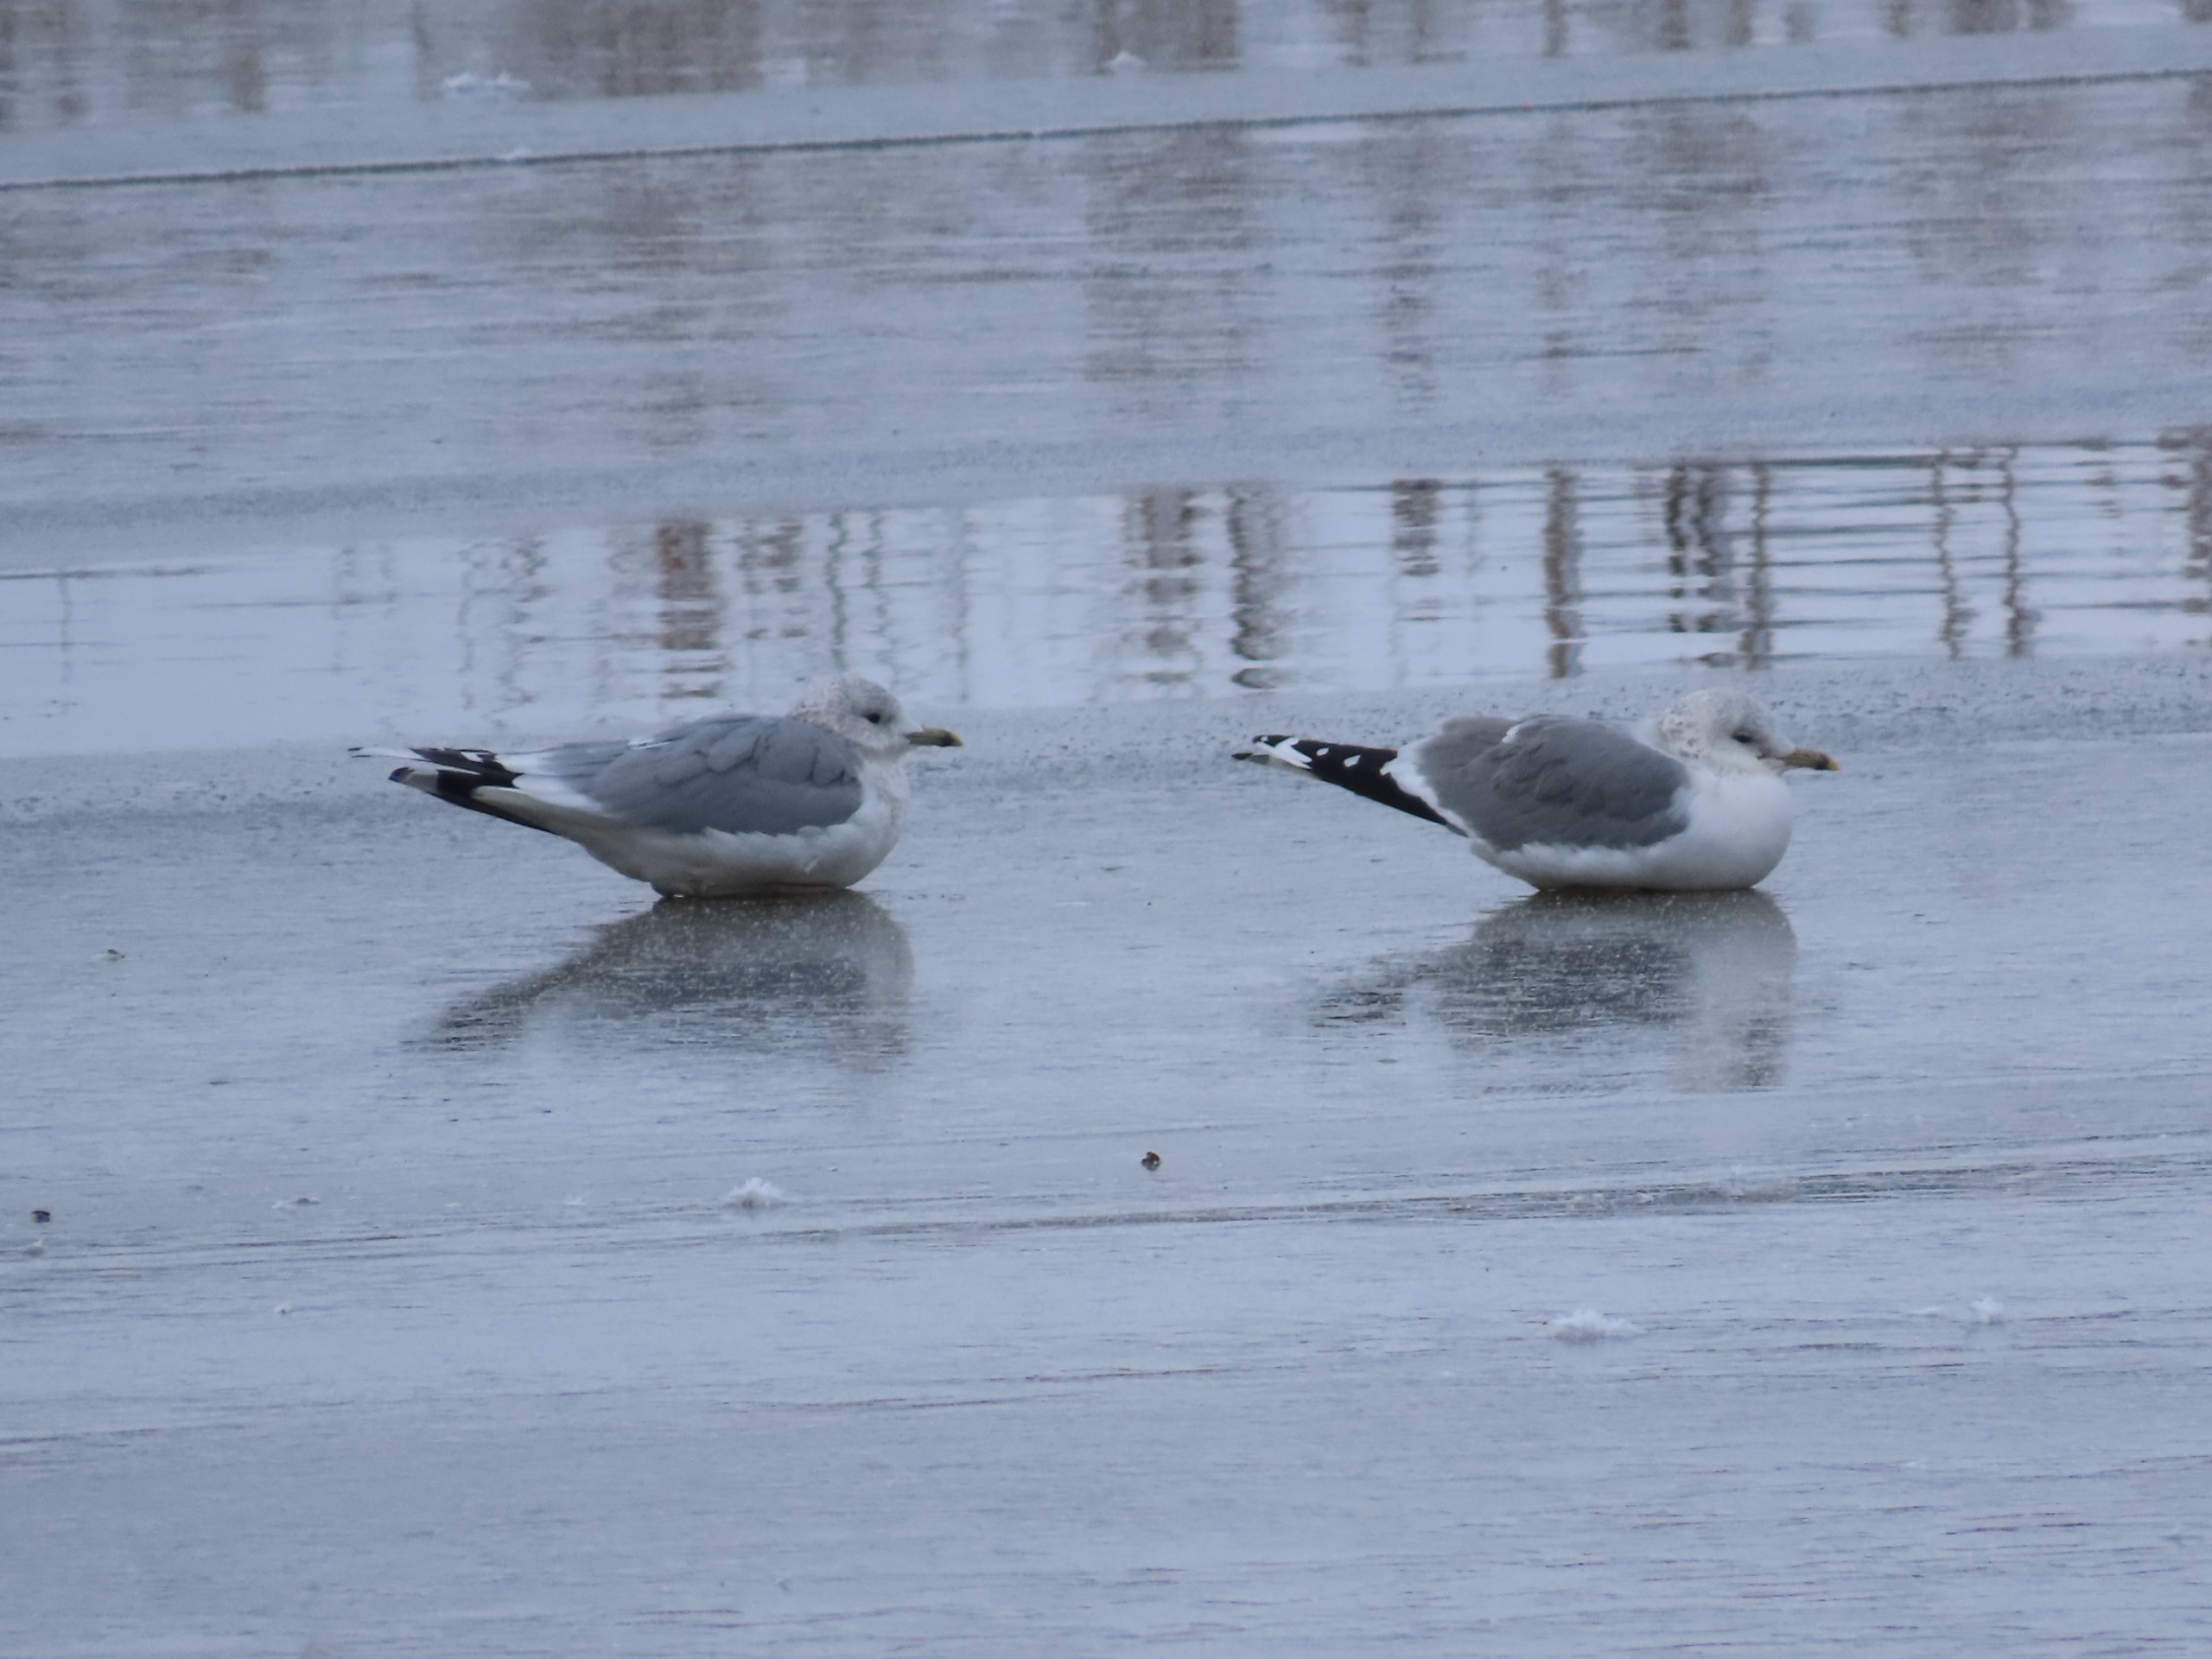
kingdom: Animalia
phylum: Chordata
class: Aves
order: Charadriiformes
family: Laridae
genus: Larus
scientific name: Larus canus
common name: Stormmåge
